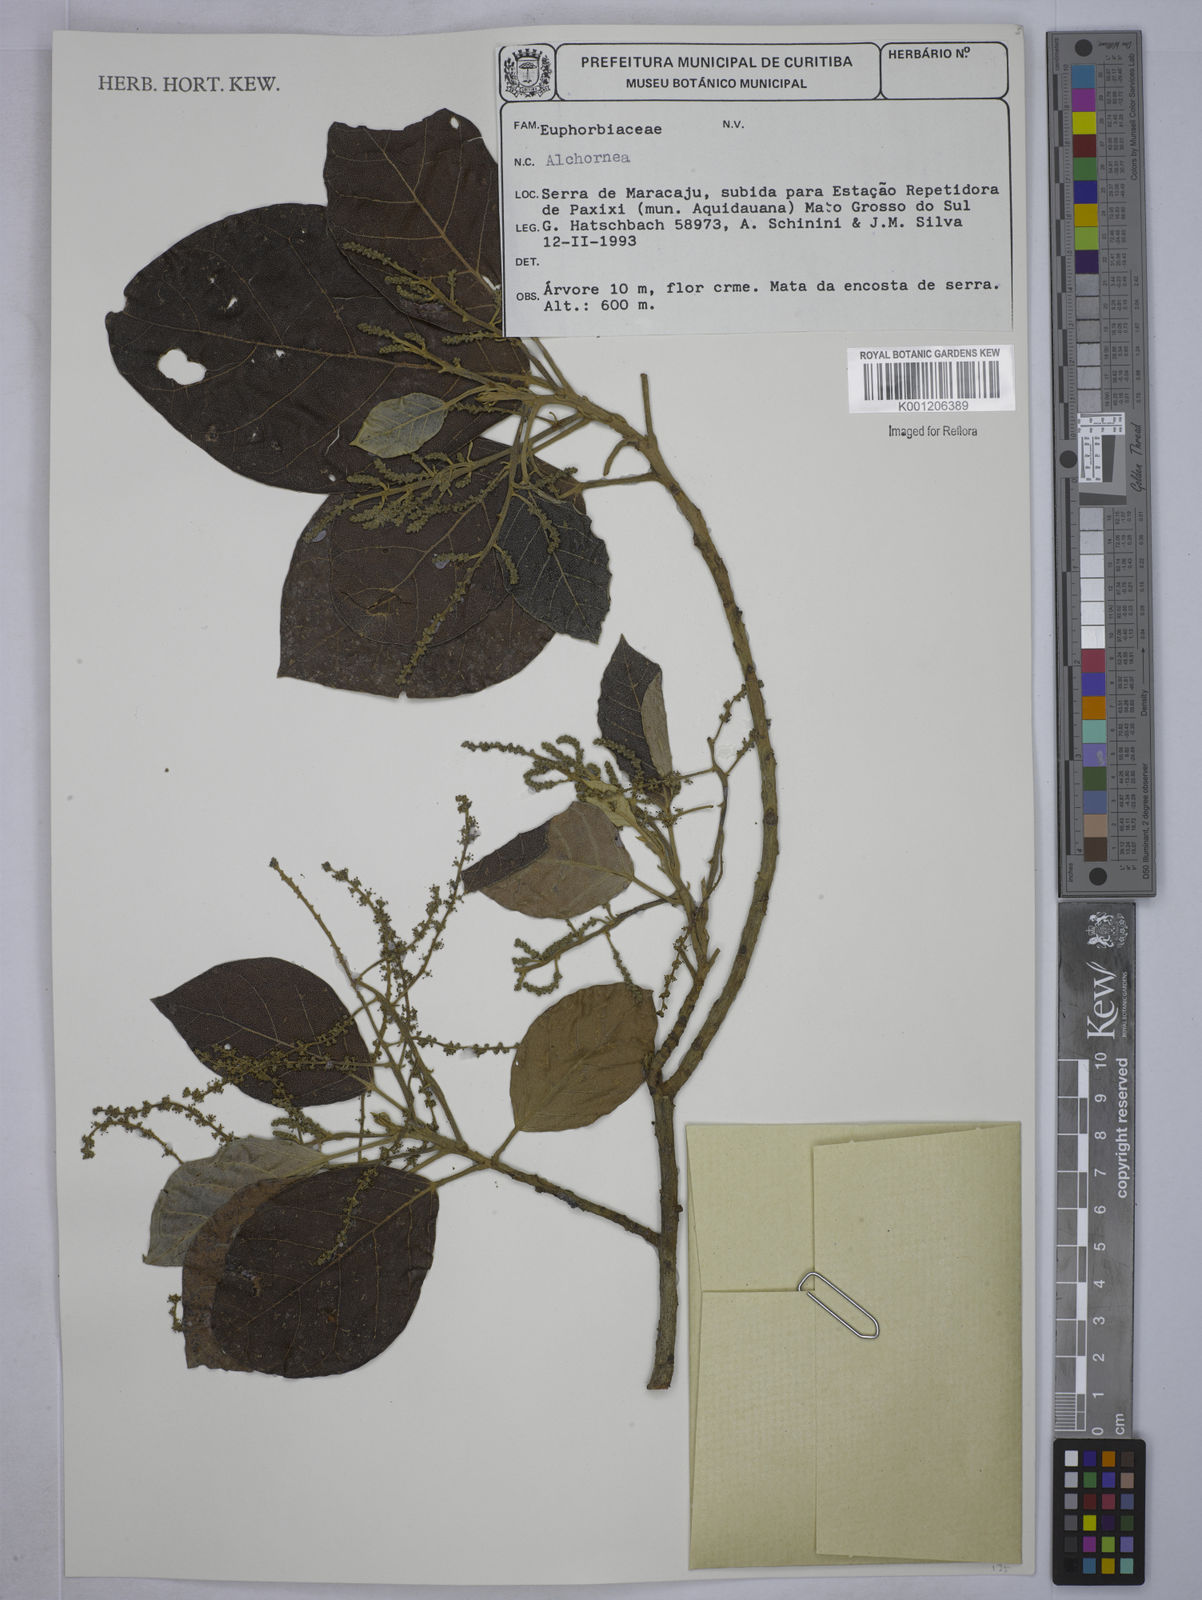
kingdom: Plantae
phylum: Tracheophyta
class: Magnoliopsida
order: Malpighiales
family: Euphorbiaceae
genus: Alchornea
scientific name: Alchornea
